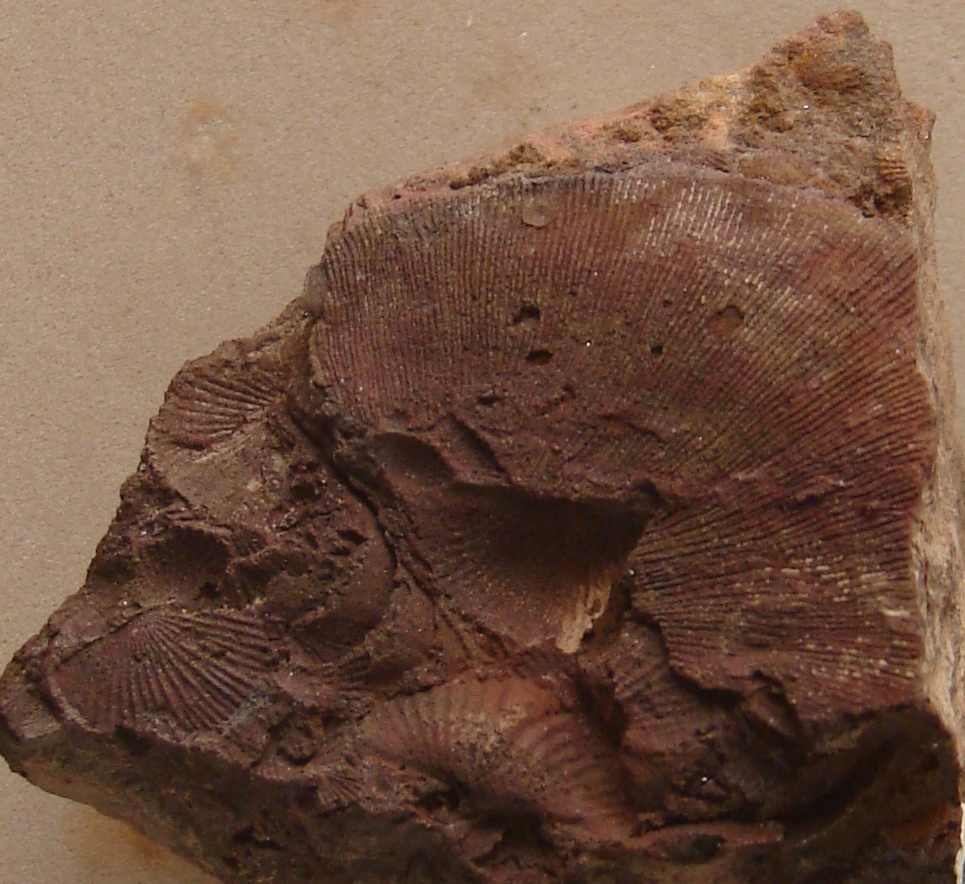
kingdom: Animalia
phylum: Brachiopoda
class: Rhynchonellata
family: Spinocyrtiidae
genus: Subcuspidella
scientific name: Subcuspidella
